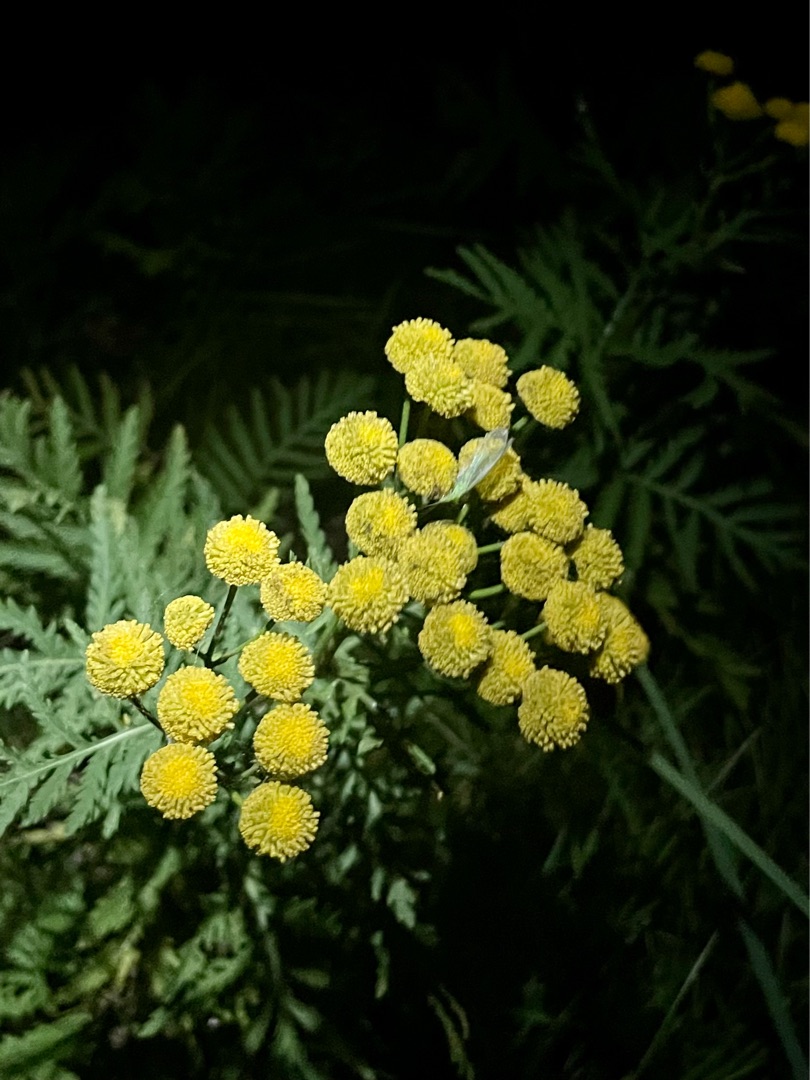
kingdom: Plantae
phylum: Tracheophyta
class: Magnoliopsida
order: Asterales
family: Asteraceae
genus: Tanacetum
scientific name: Tanacetum vulgare
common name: Rejnfan
